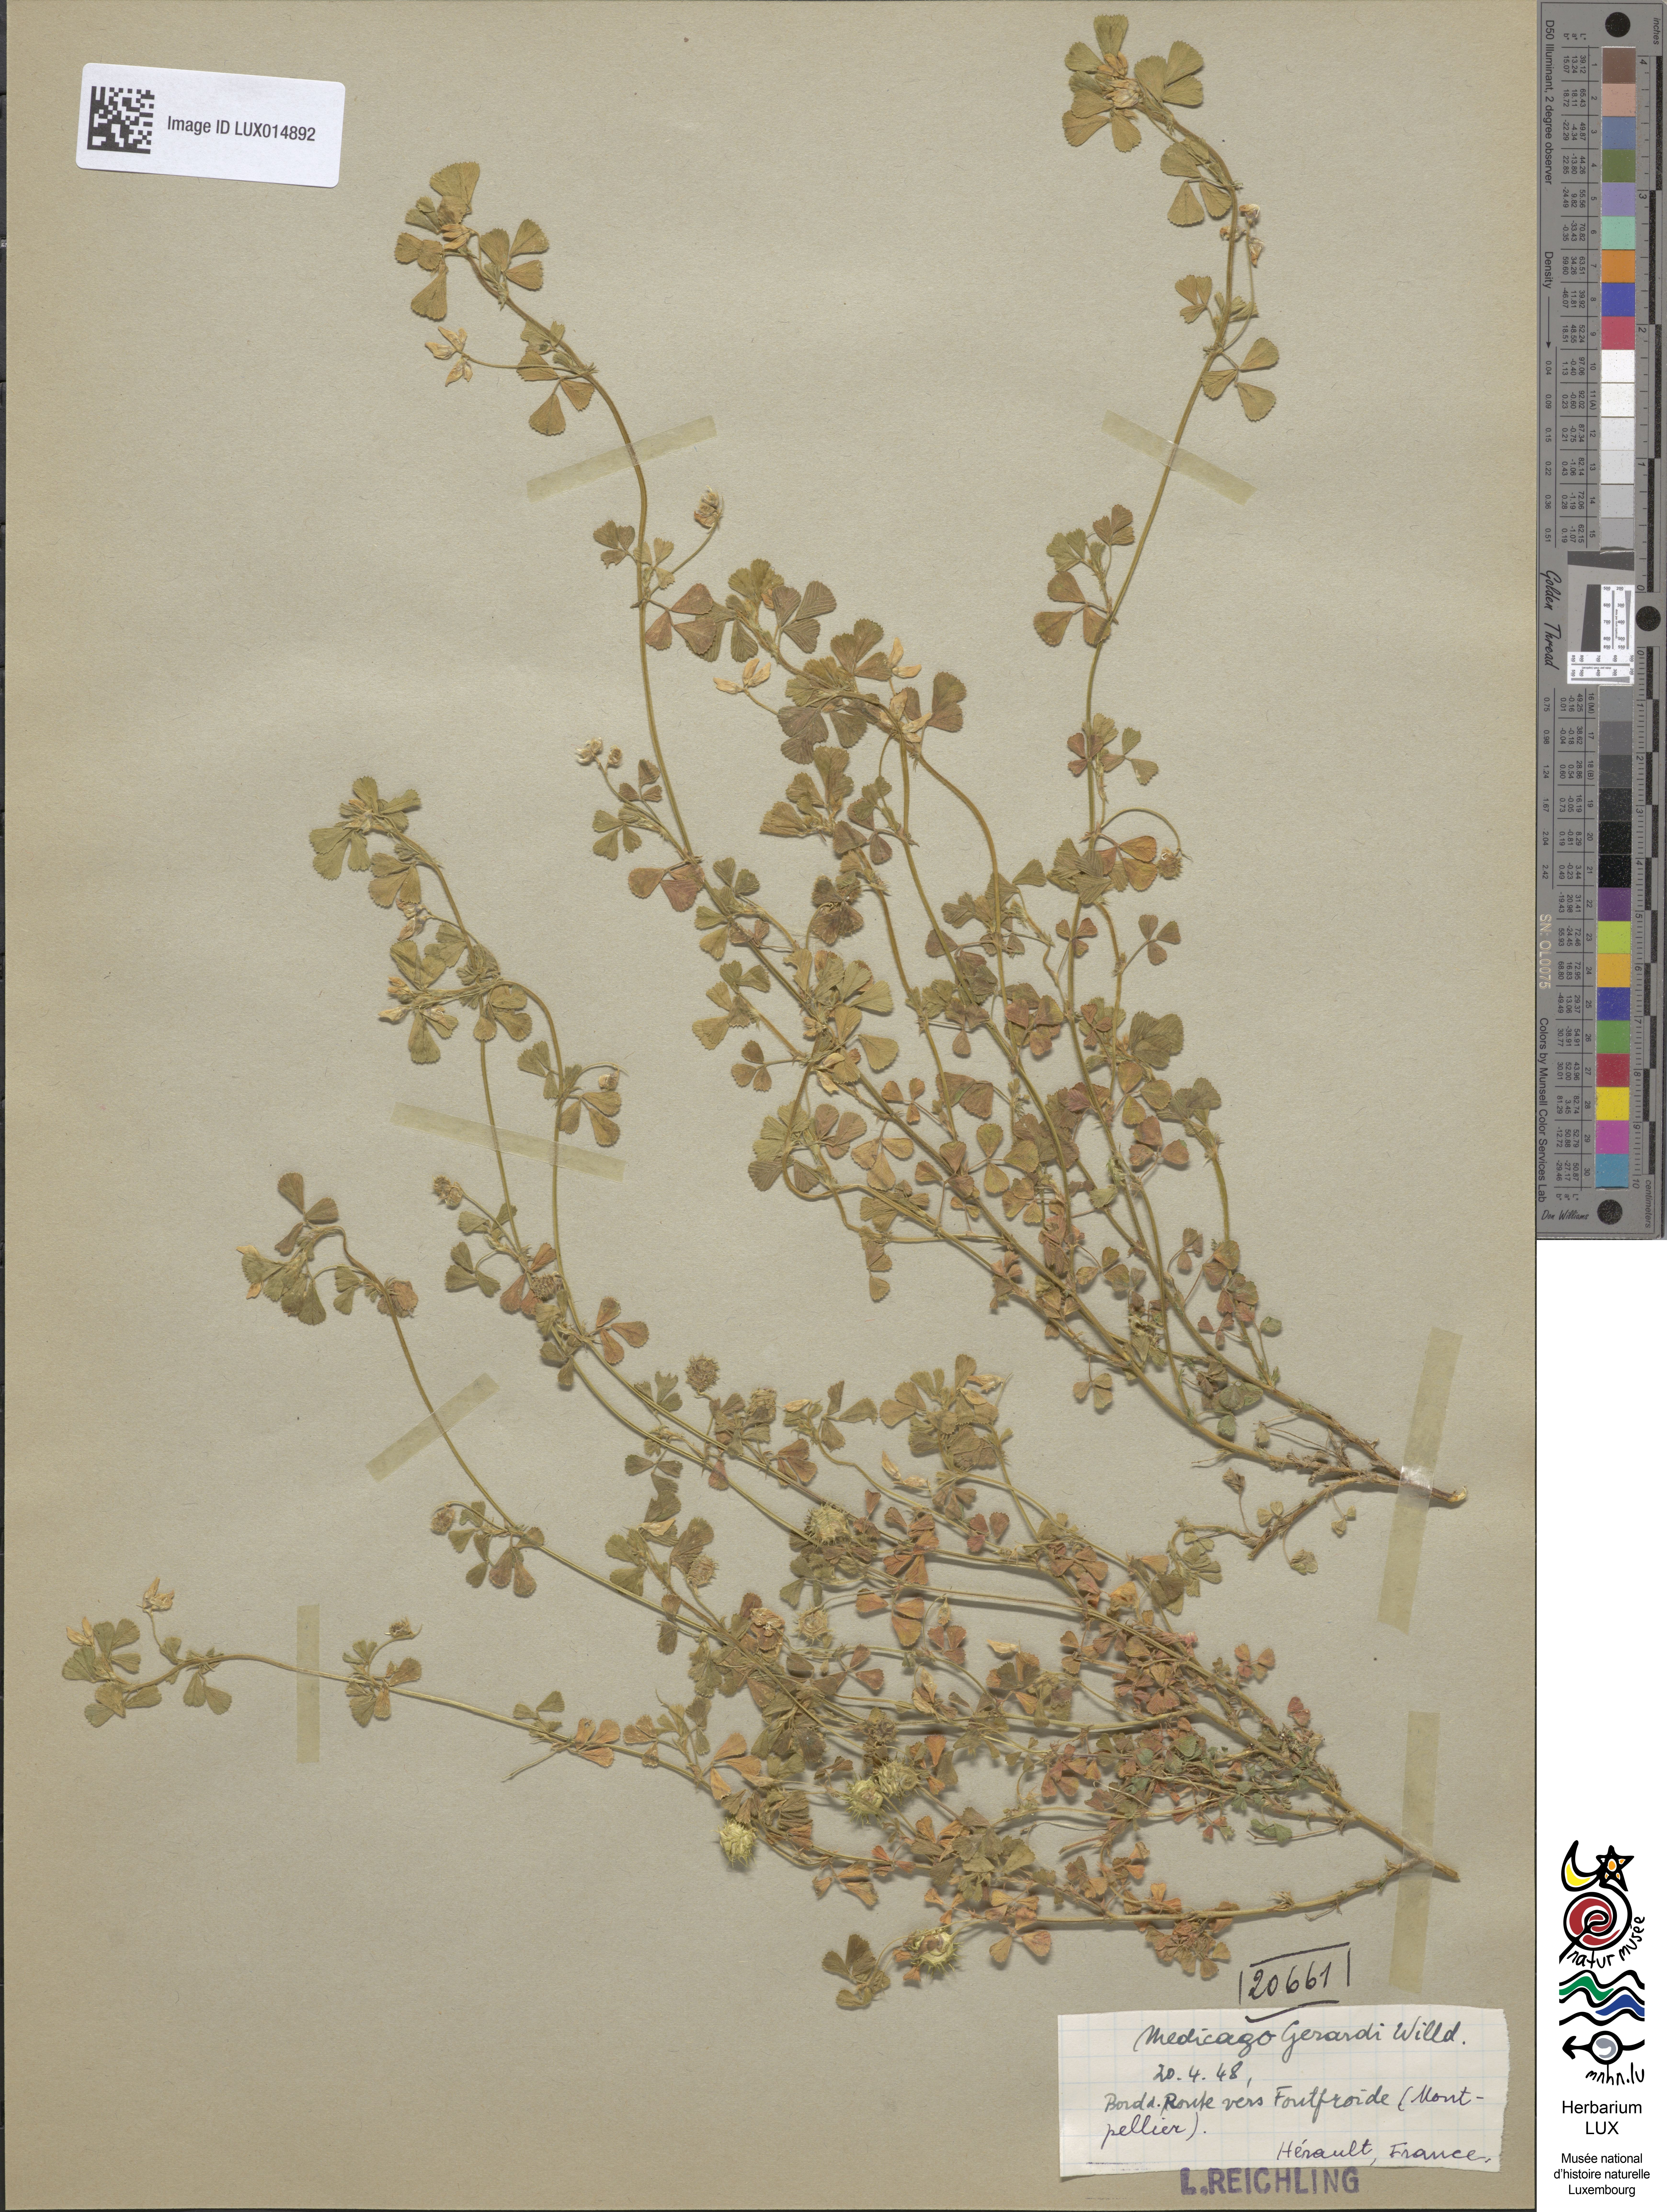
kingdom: Plantae
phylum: Tracheophyta
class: Magnoliopsida
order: Fabales
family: Fabaceae
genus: Medicago
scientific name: Medicago rigidula
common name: Tifton medic
